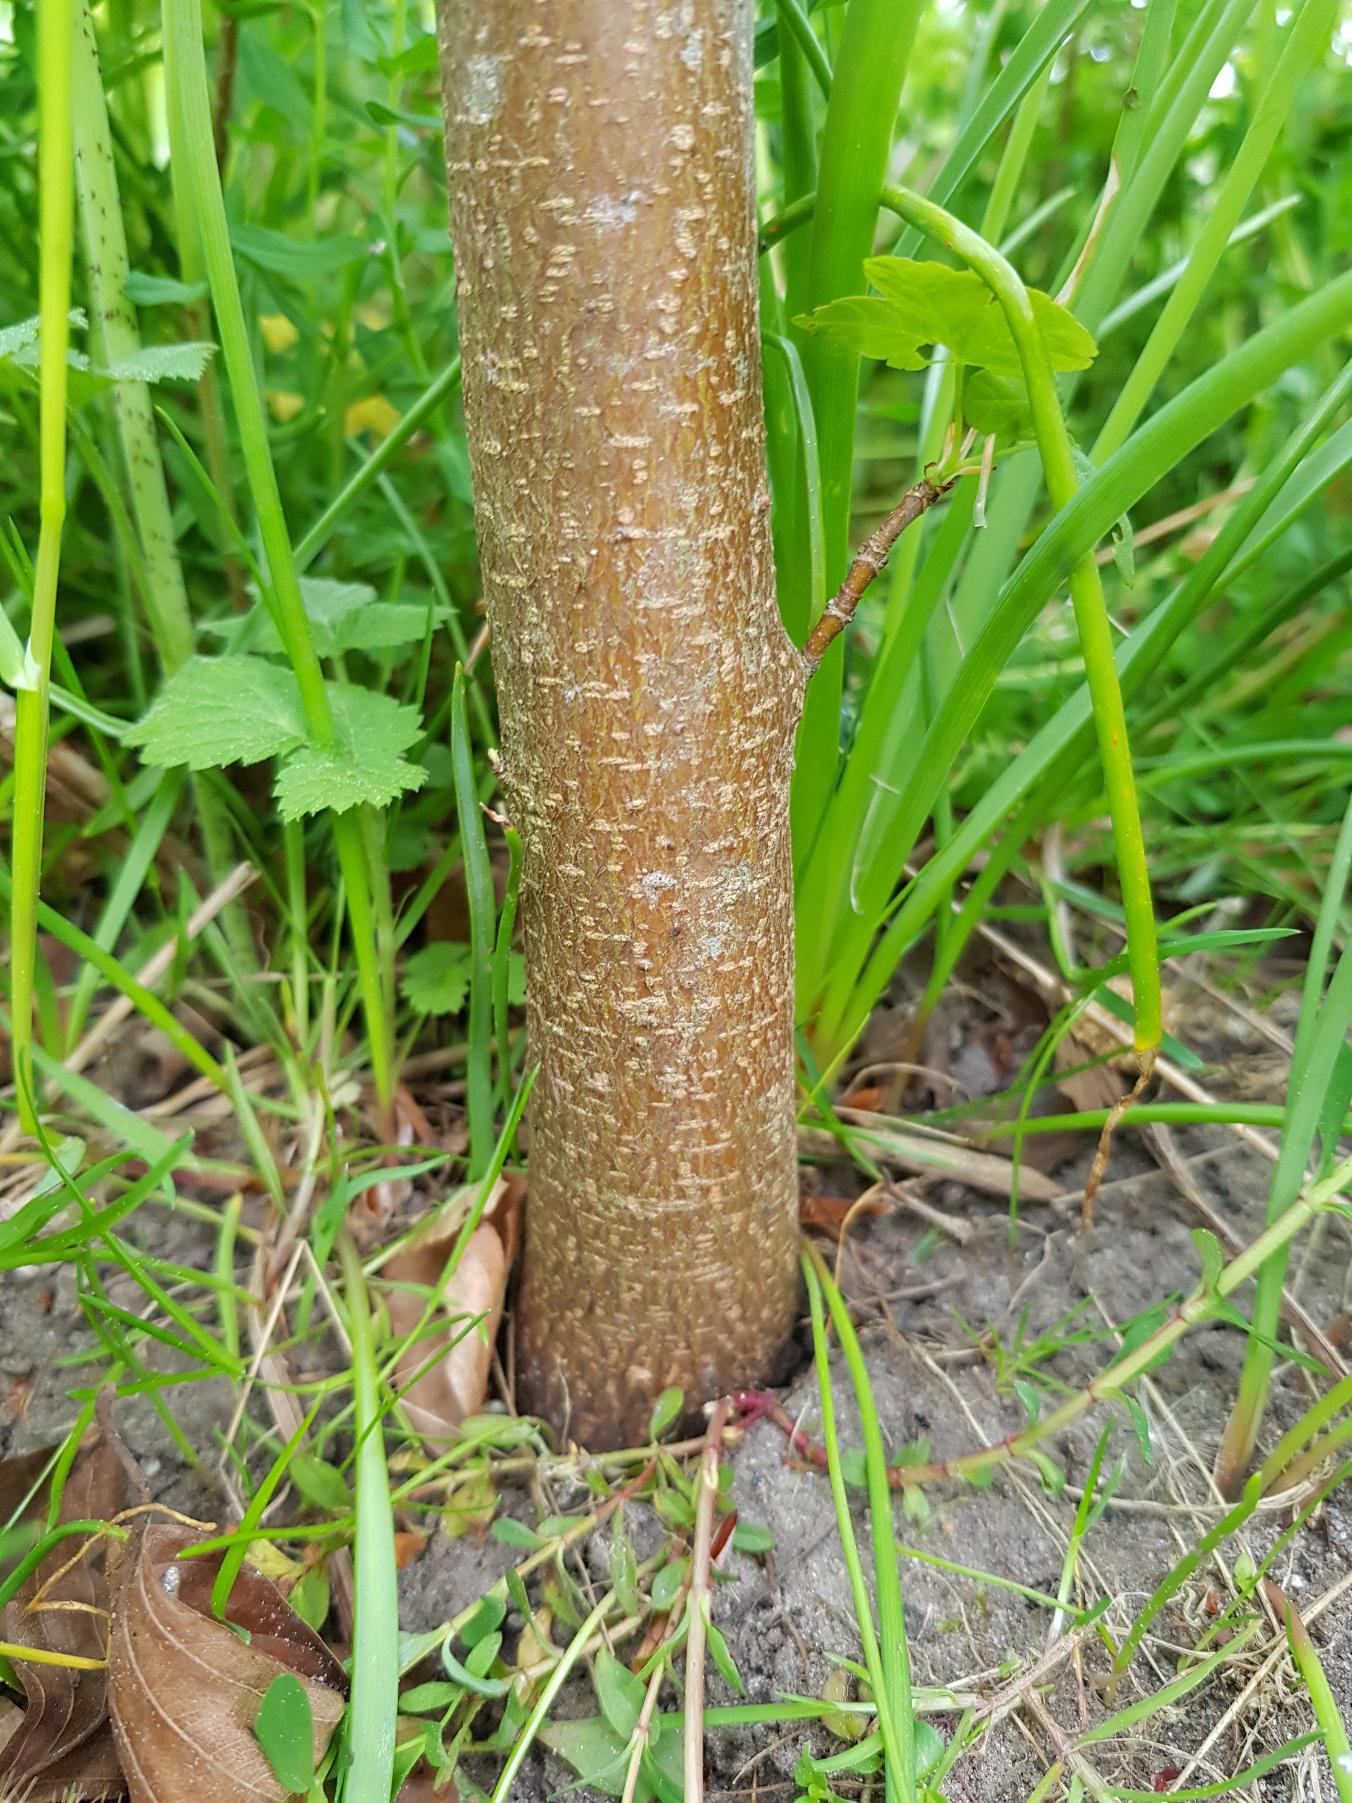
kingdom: Plantae
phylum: Tracheophyta
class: Magnoliopsida
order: Sapindales
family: Sapindaceae
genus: Acer
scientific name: Acer pseudoplatanus
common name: Ahorn
